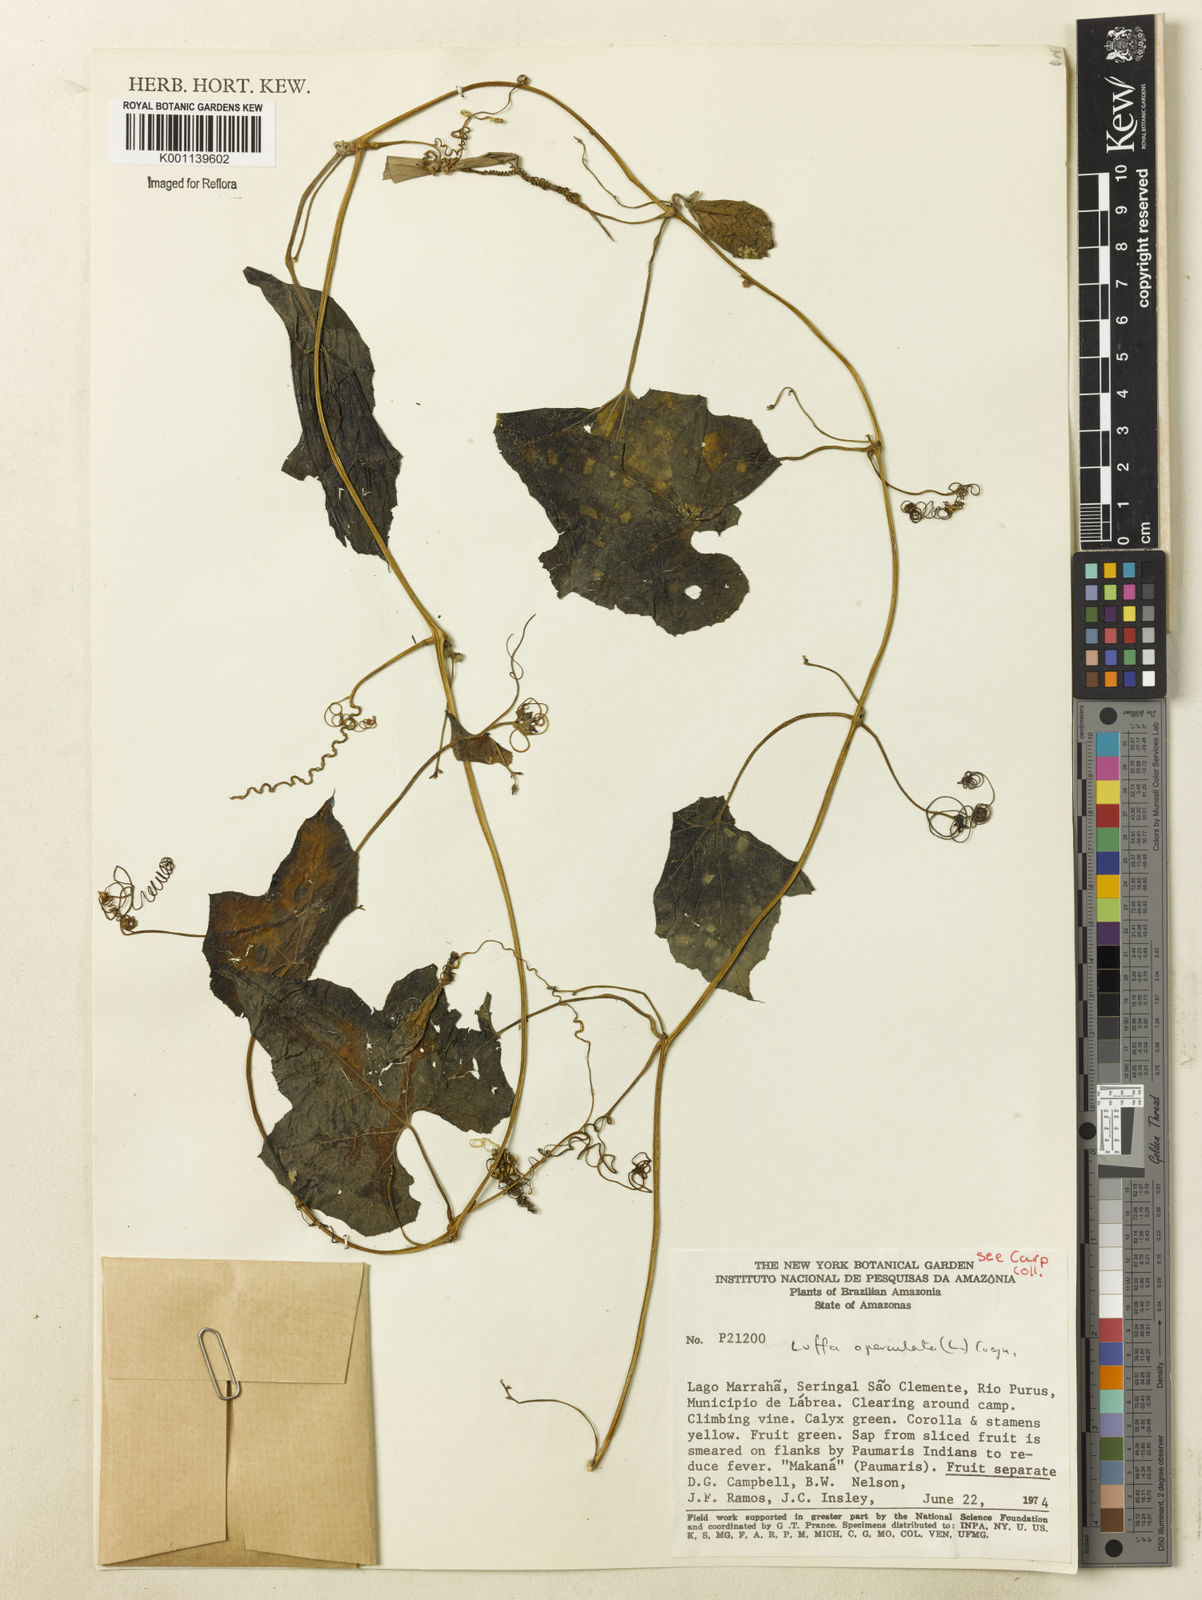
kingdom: Plantae
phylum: Tracheophyta
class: Magnoliopsida
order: Cucurbitales
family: Cucurbitaceae
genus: Luffa
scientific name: Luffa operculata
